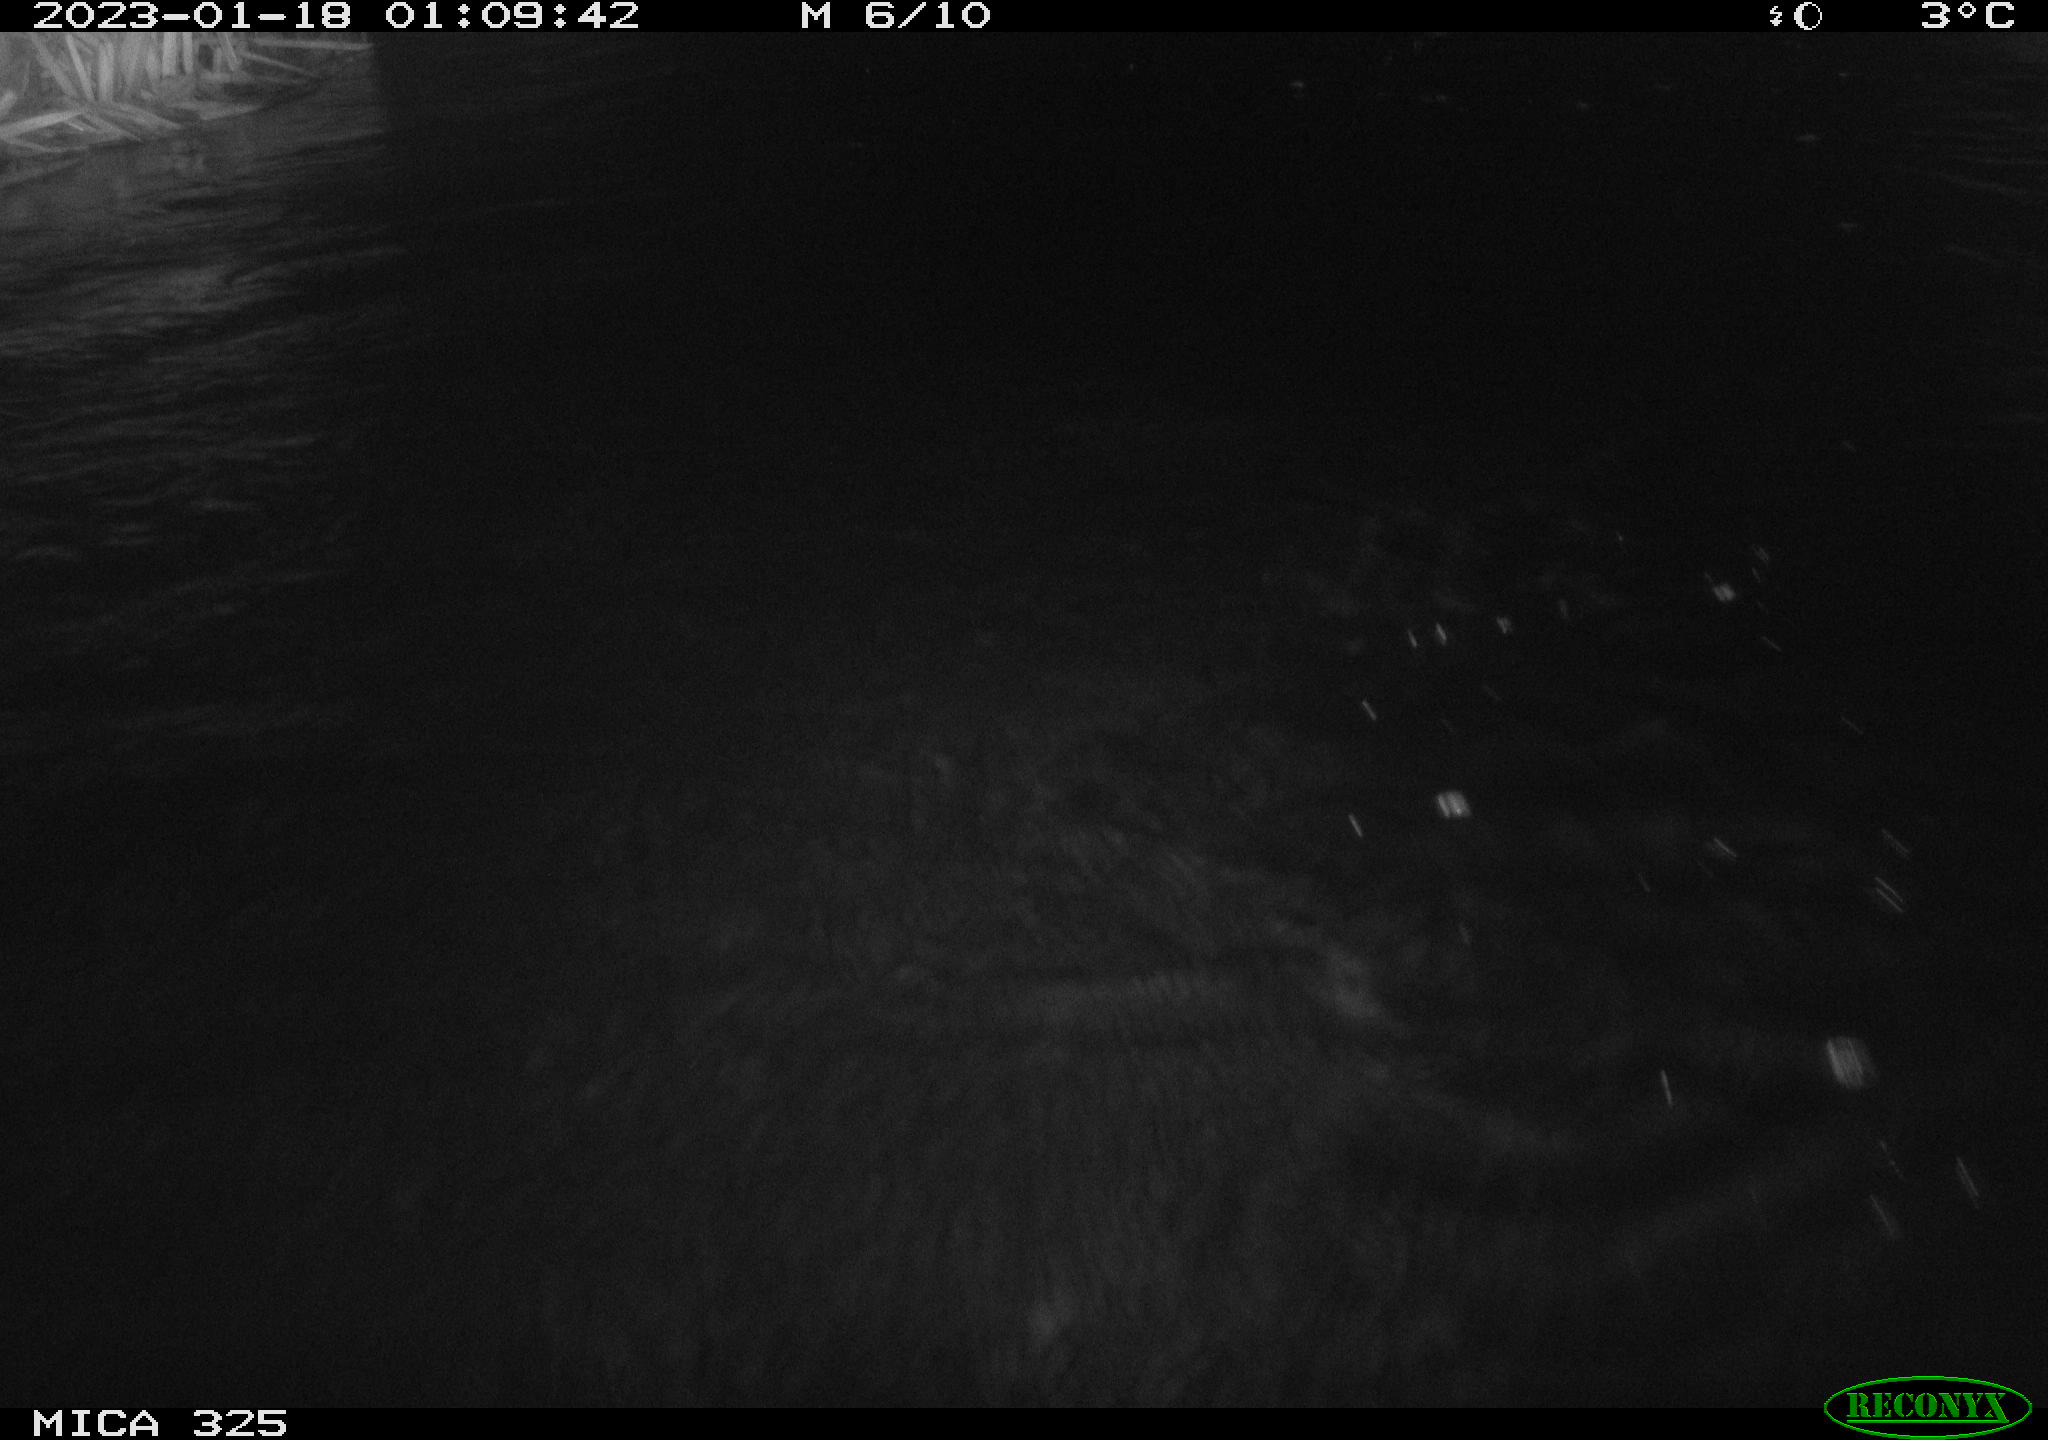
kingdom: Animalia
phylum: Chordata
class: Mammalia
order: Rodentia
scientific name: Rodentia
